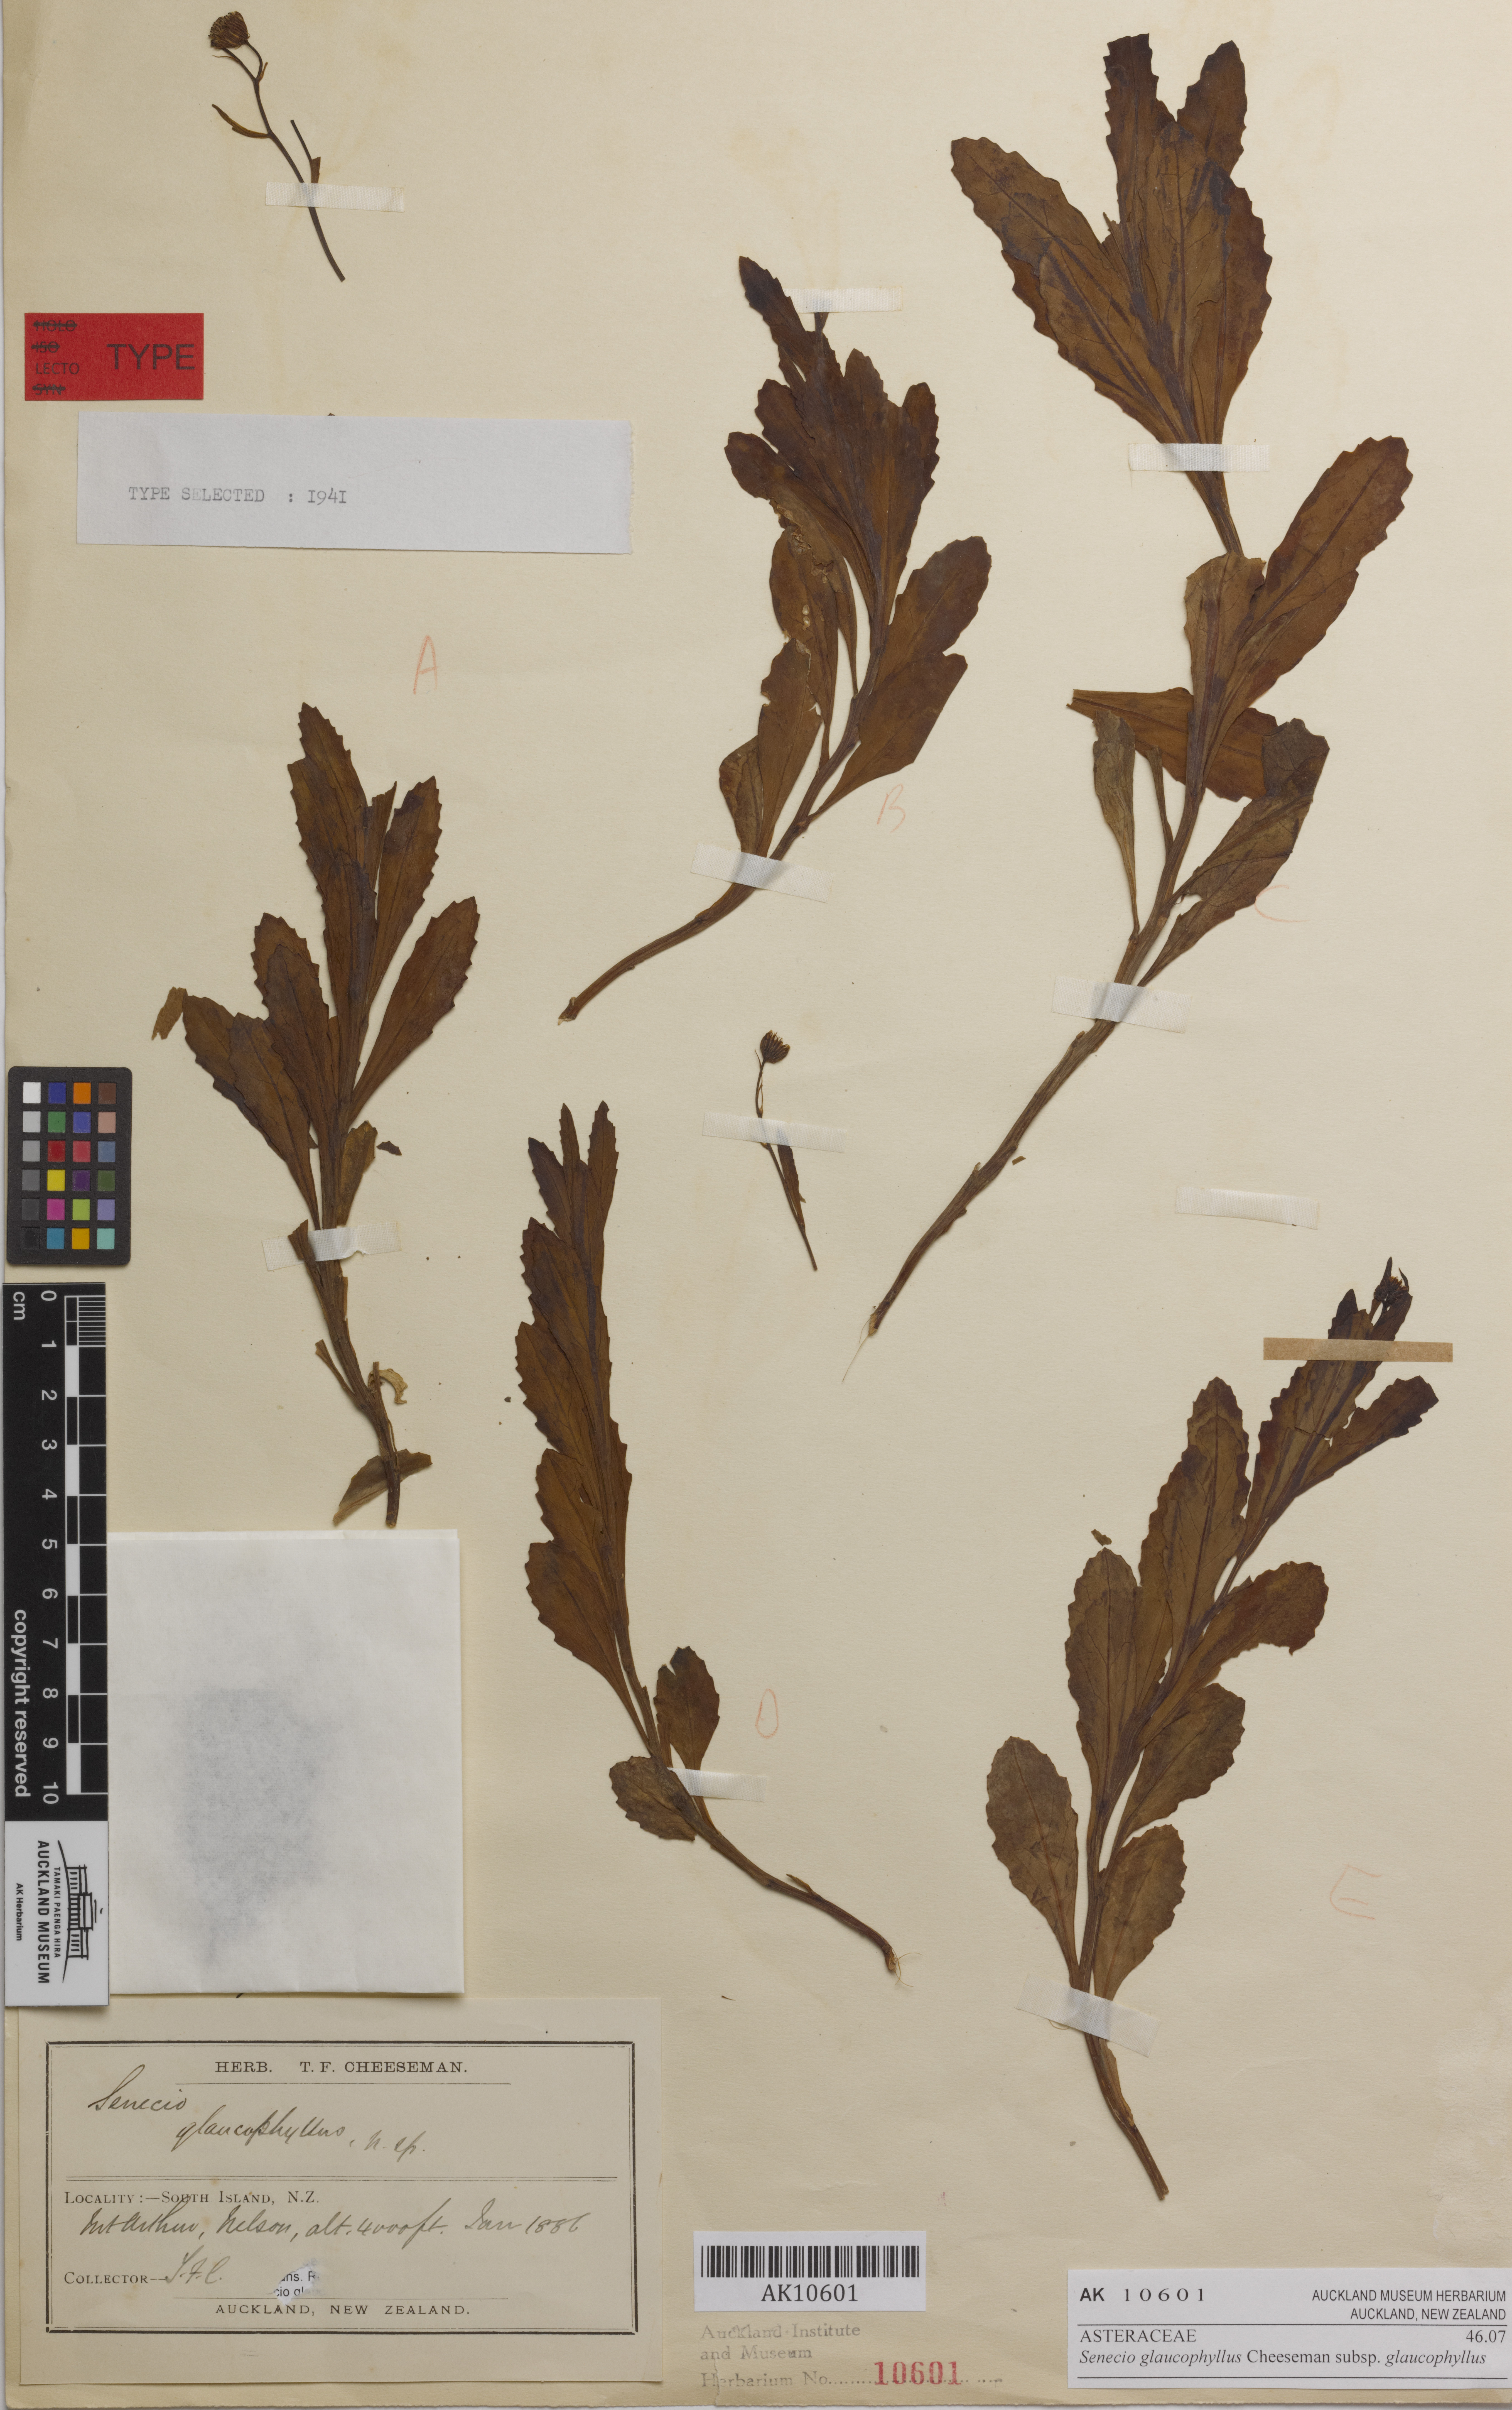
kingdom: Plantae
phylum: Tracheophyta
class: Magnoliopsida
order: Asterales
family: Asteraceae
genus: Senecio
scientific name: Senecio matatini
